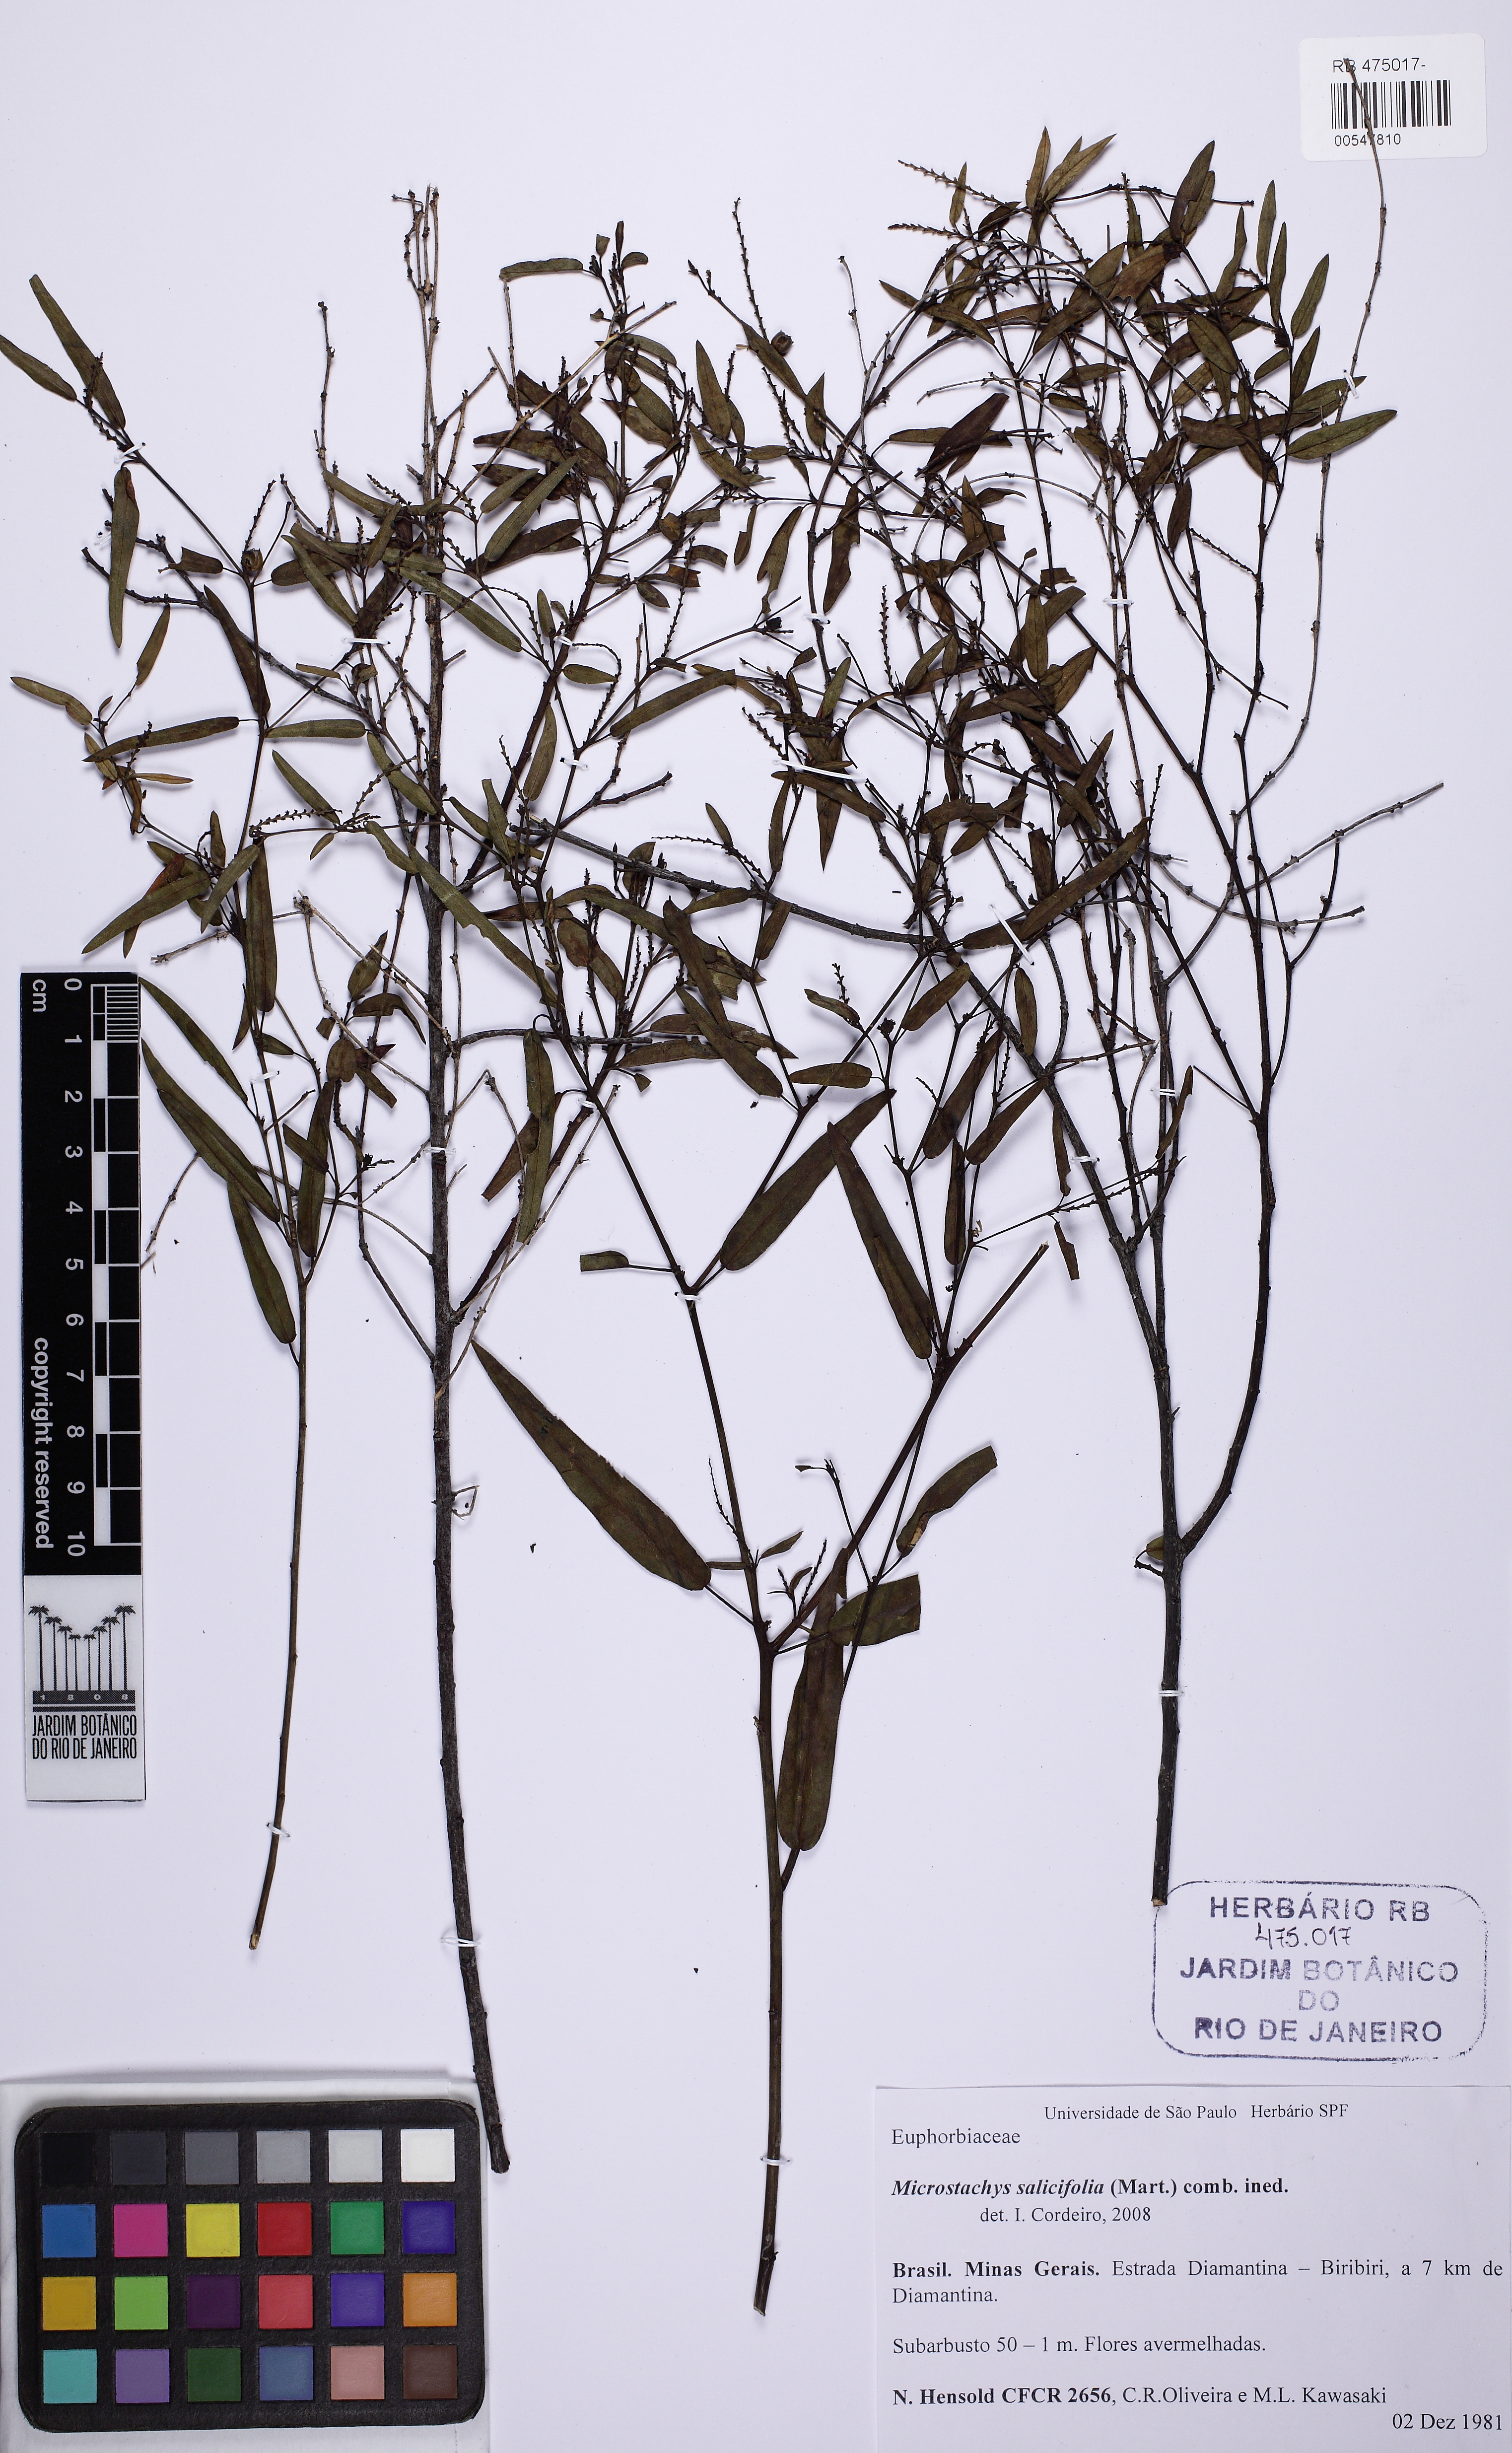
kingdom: Plantae
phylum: Tracheophyta
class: Magnoliopsida
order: Malpighiales
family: Euphorbiaceae
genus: Microstachys
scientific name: Microstachys salicifolia
